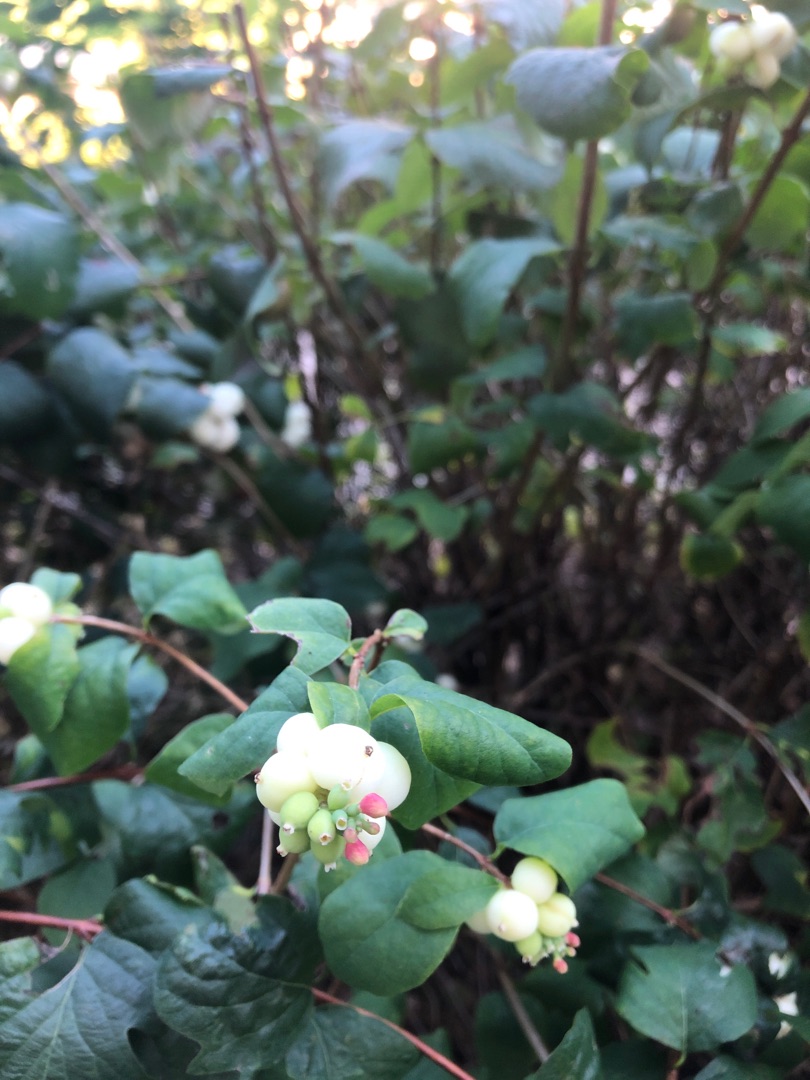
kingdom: Plantae
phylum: Tracheophyta
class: Magnoliopsida
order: Dipsacales
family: Caprifoliaceae
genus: Symphoricarpos
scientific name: Symphoricarpos albus
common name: Almindelig snebær
